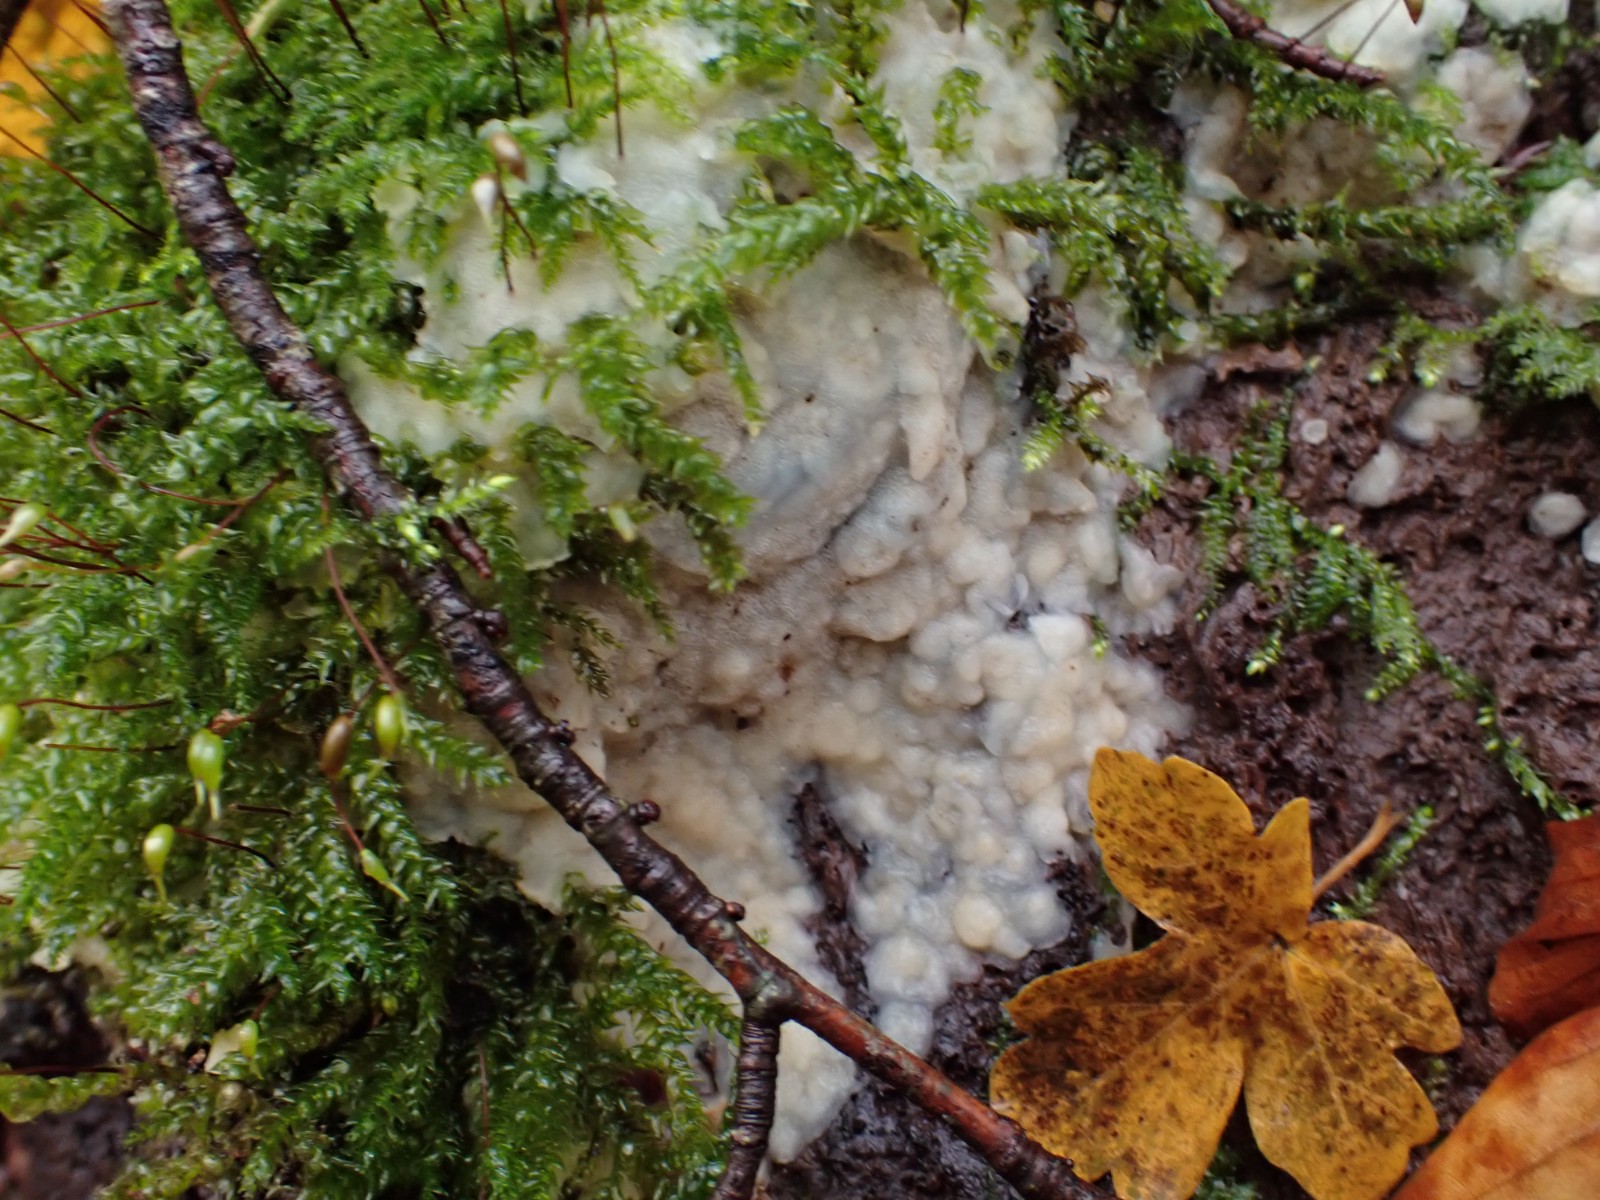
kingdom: Fungi
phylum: Basidiomycota
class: Agaricomycetes
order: Polyporales
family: Meruliaceae
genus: Physisporinus
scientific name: Physisporinus vitreus
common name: mastesvamp
